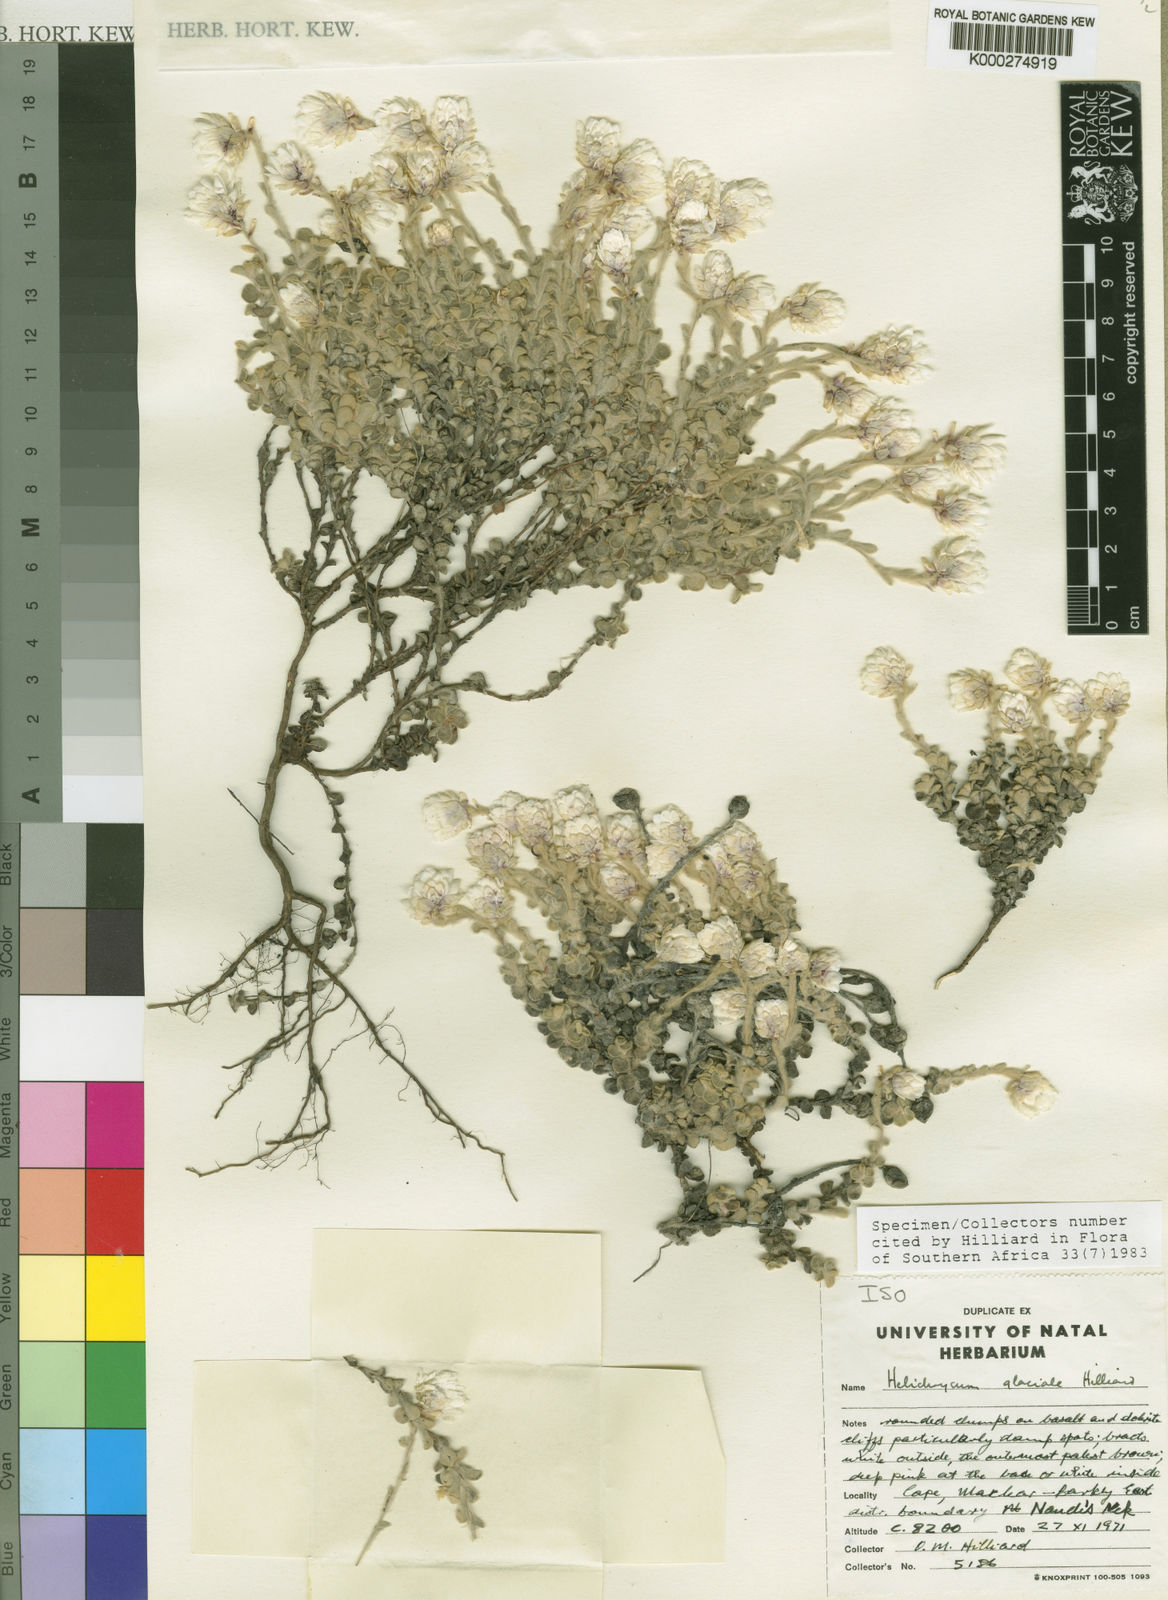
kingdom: Plantae
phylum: Tracheophyta
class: Magnoliopsida
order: Asterales
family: Asteraceae
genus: Helichrysum
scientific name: Helichrysum glaciale
